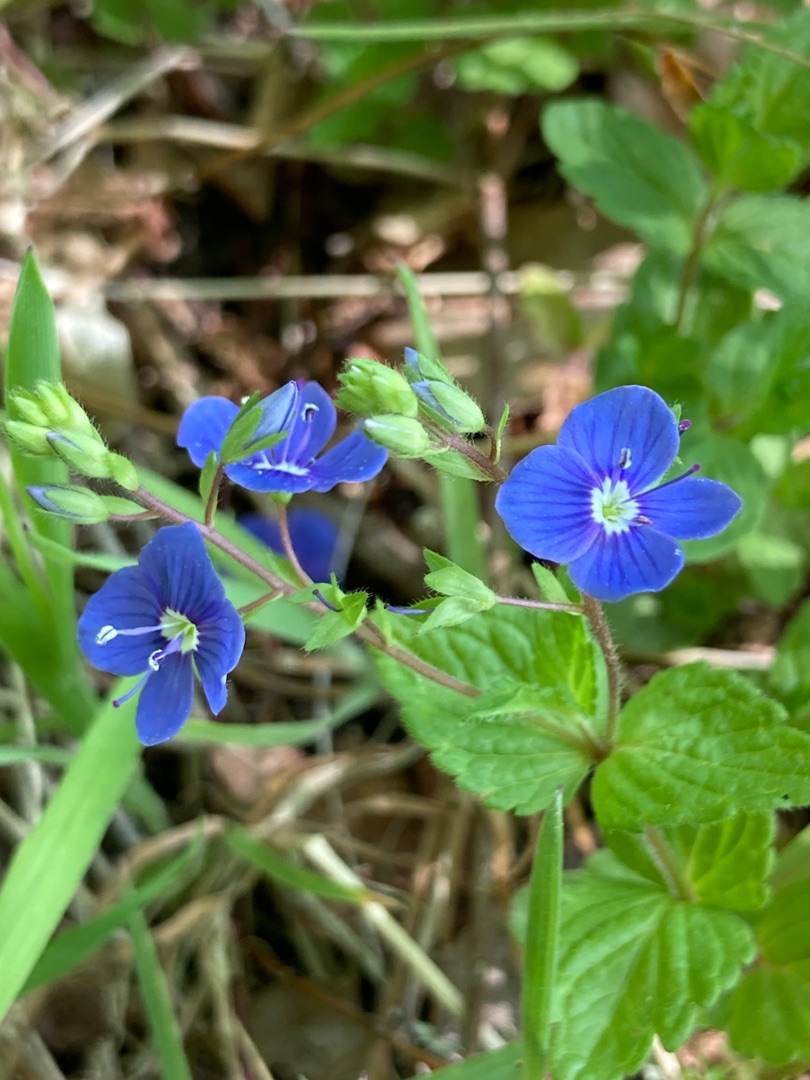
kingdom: Plantae
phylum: Tracheophyta
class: Magnoliopsida
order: Lamiales
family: Plantaginaceae
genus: Veronica
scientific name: Veronica chamaedrys
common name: Tveskægget ærenpris
